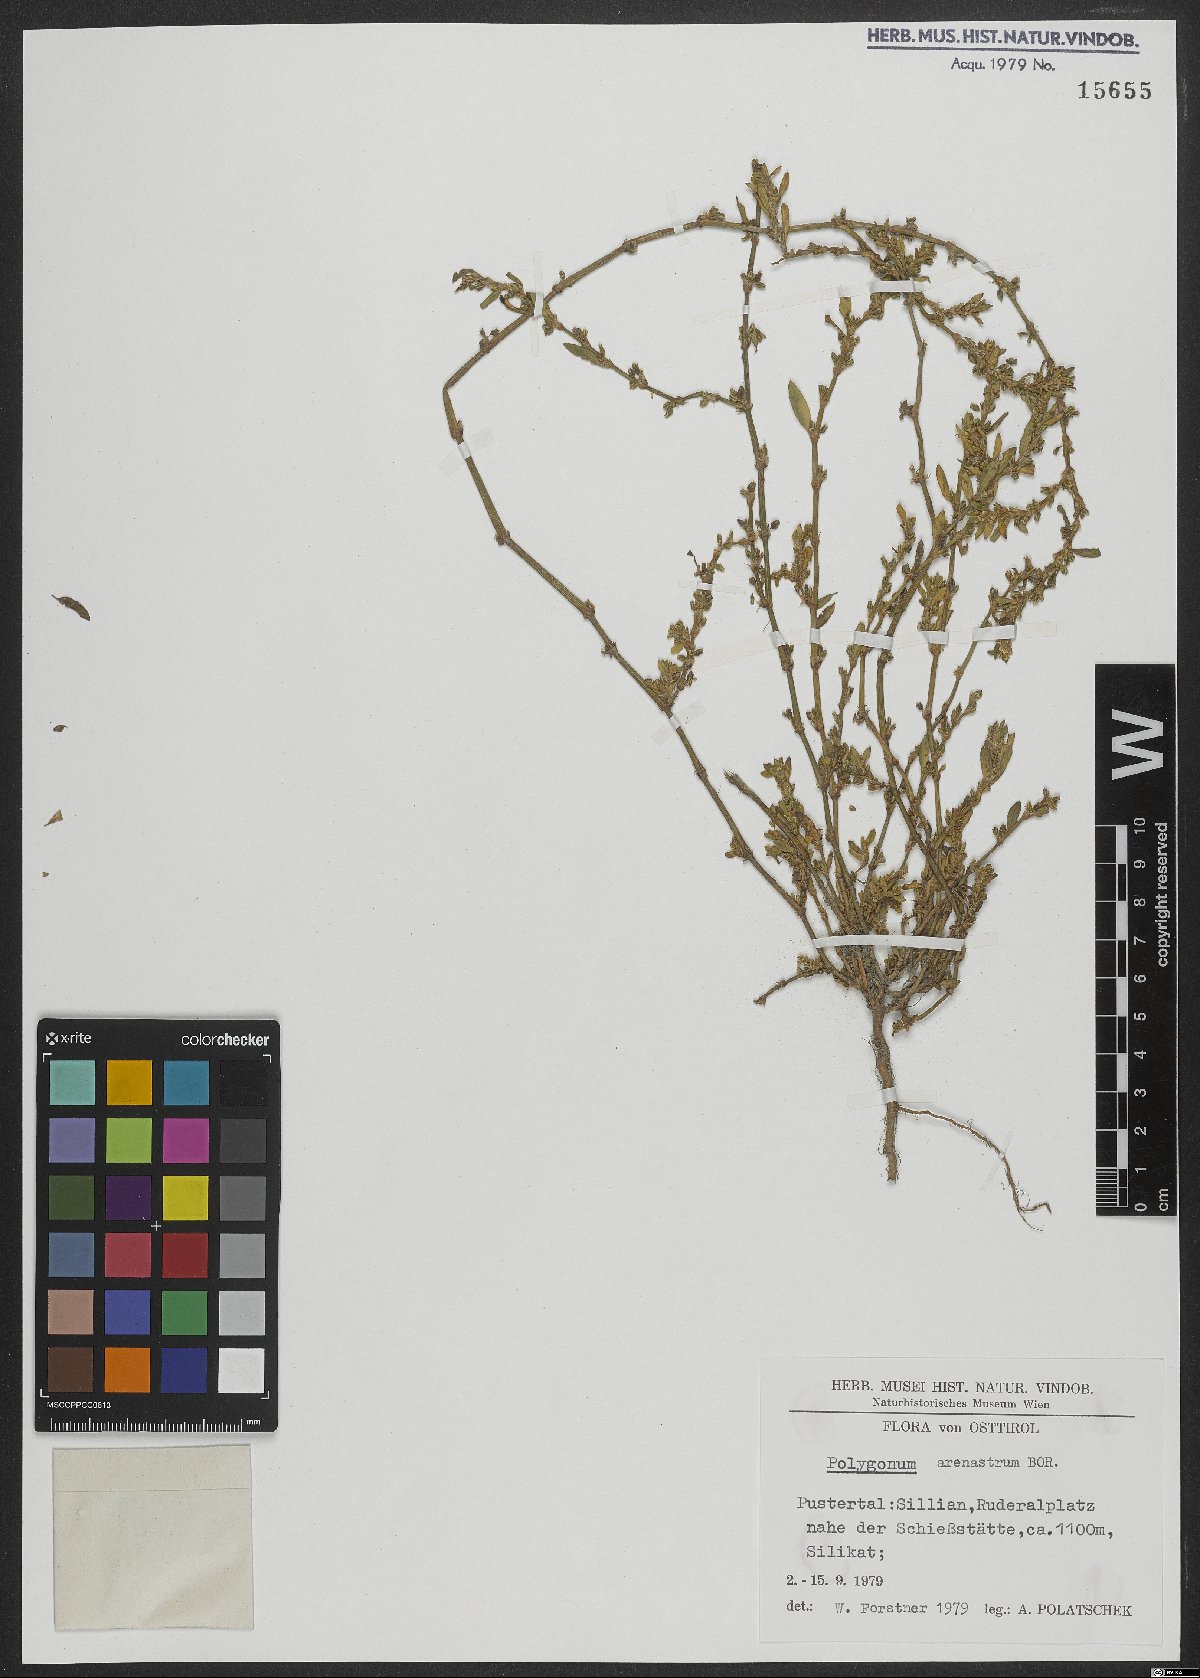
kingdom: Plantae
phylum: Tracheophyta
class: Magnoliopsida
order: Caryophyllales
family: Polygonaceae
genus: Polygonum
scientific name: Polygonum arenastrum
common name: Equal-leaved knotgrass
